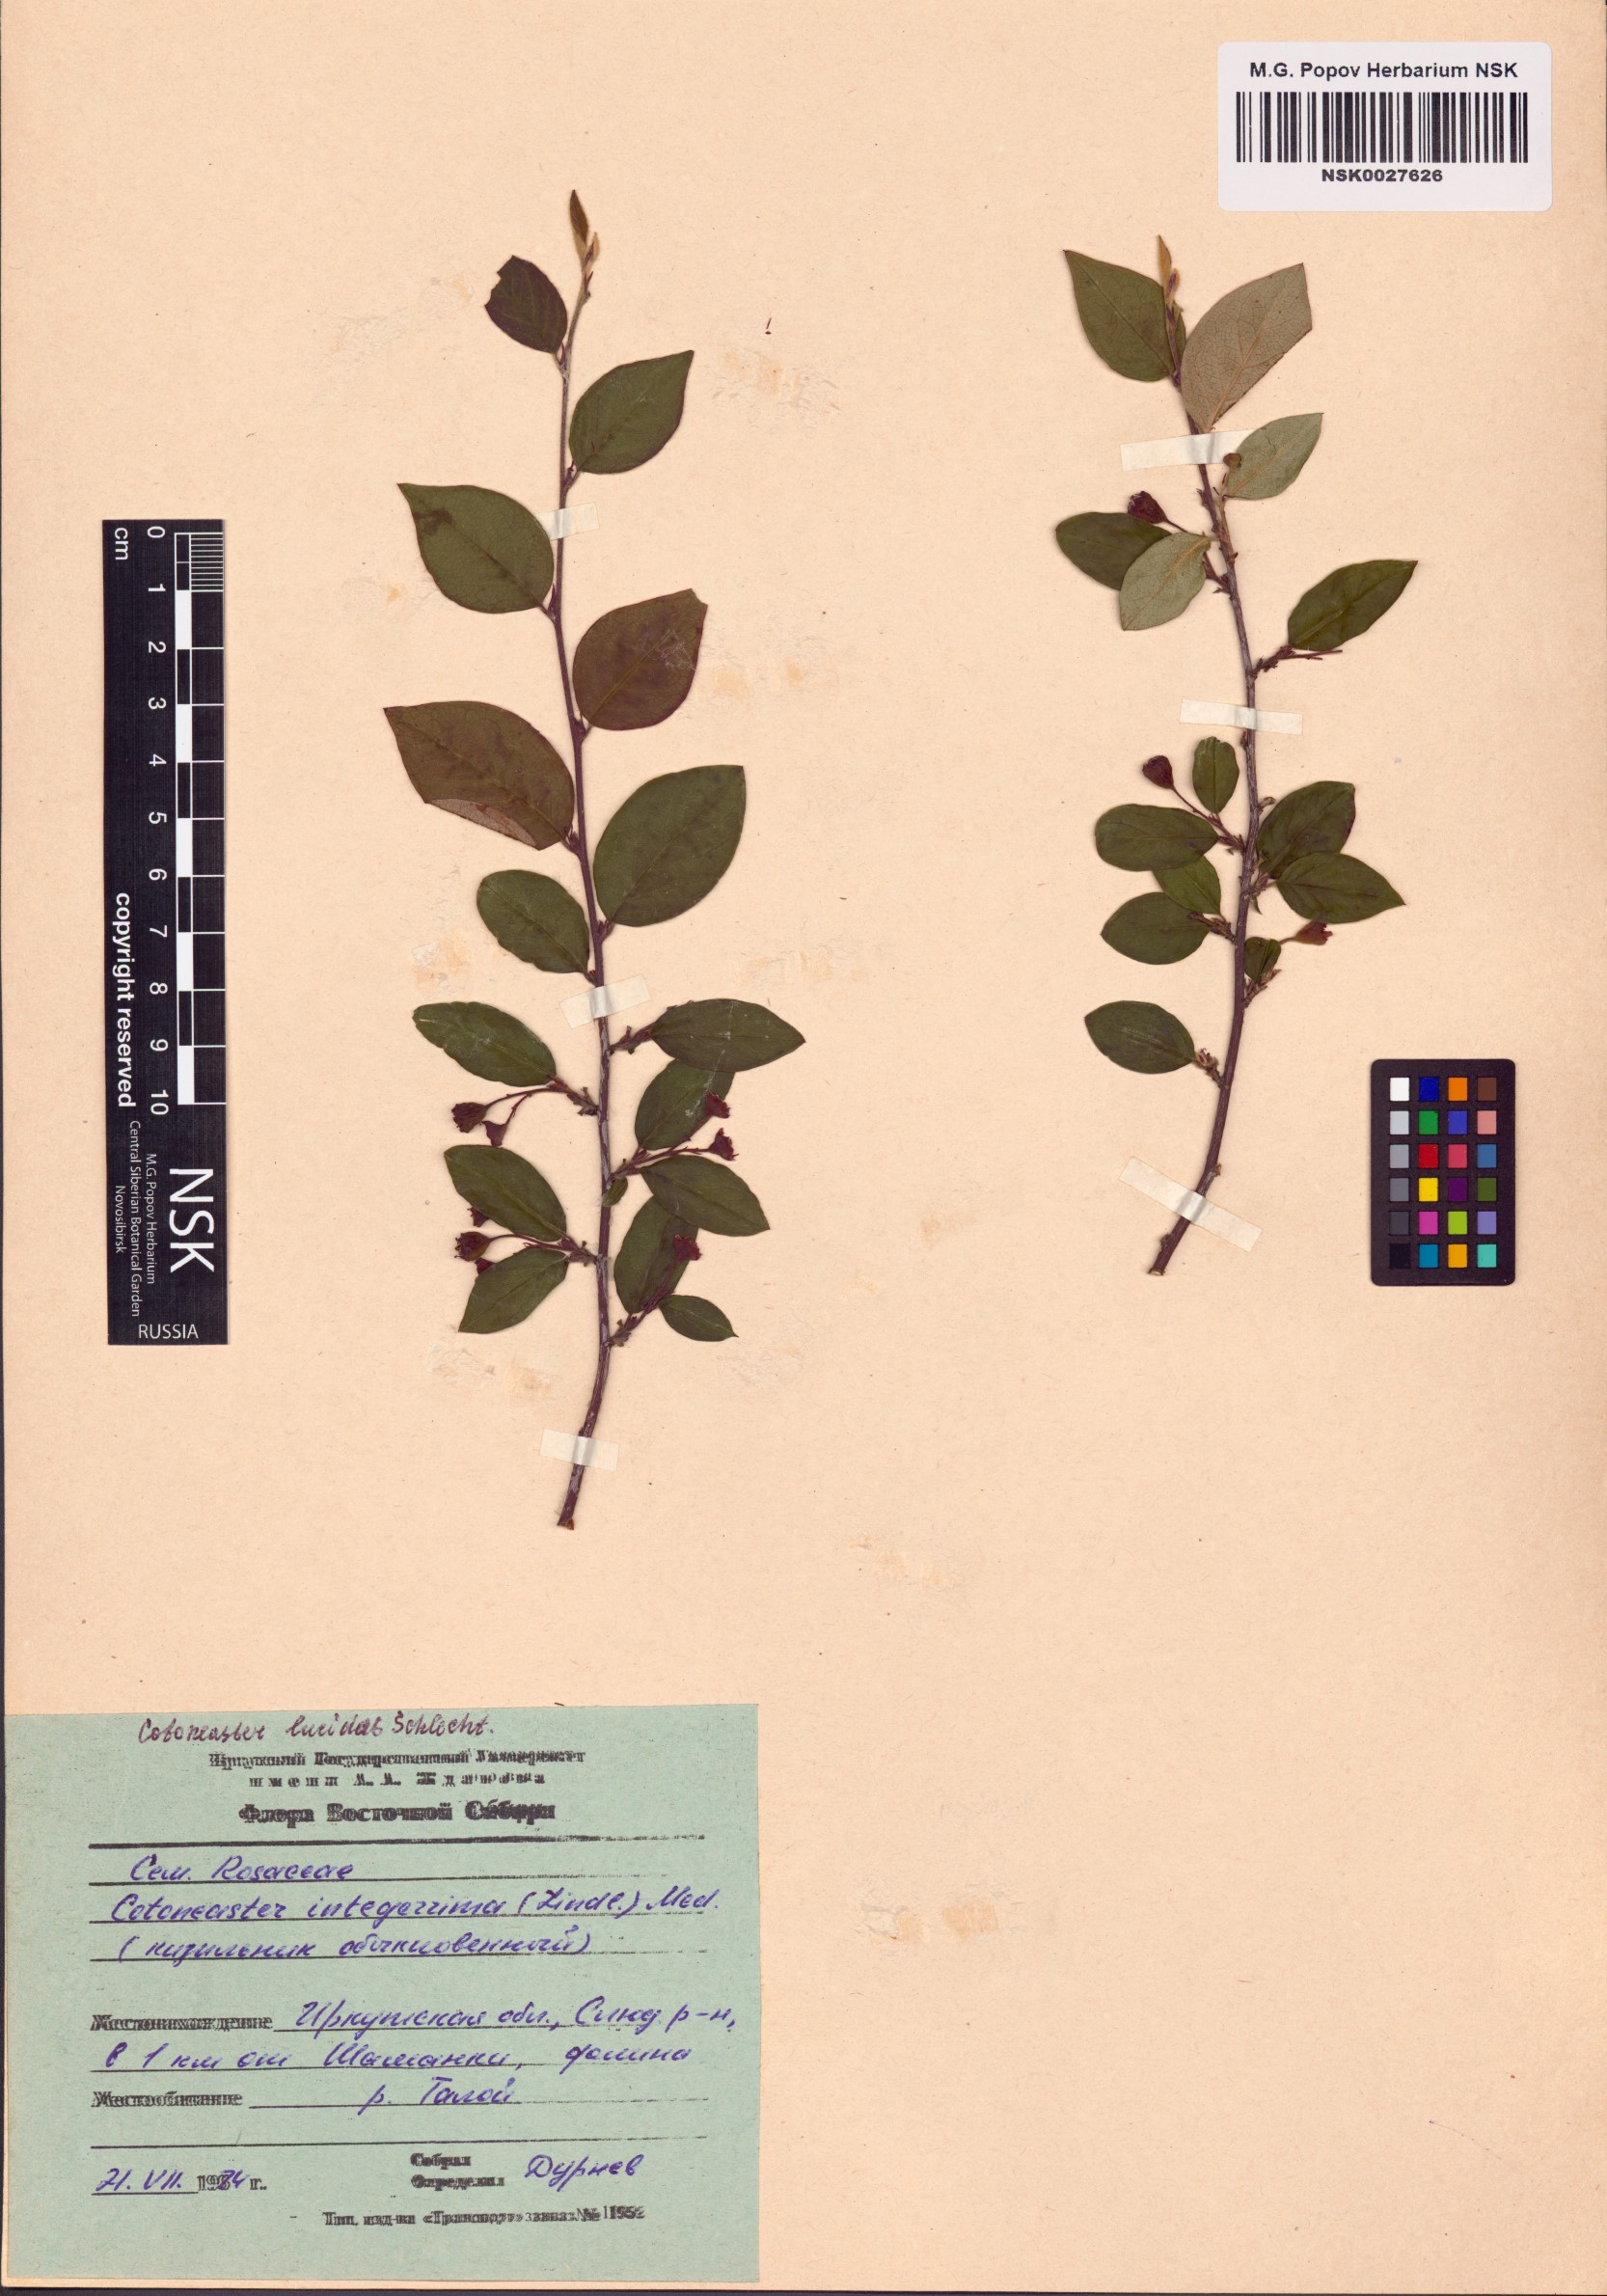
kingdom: Plantae
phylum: Tracheophyta
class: Magnoliopsida
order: Rosales
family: Rosaceae
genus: Cotoneaster
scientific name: Cotoneaster acutifolius
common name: Peking cotoneaster
